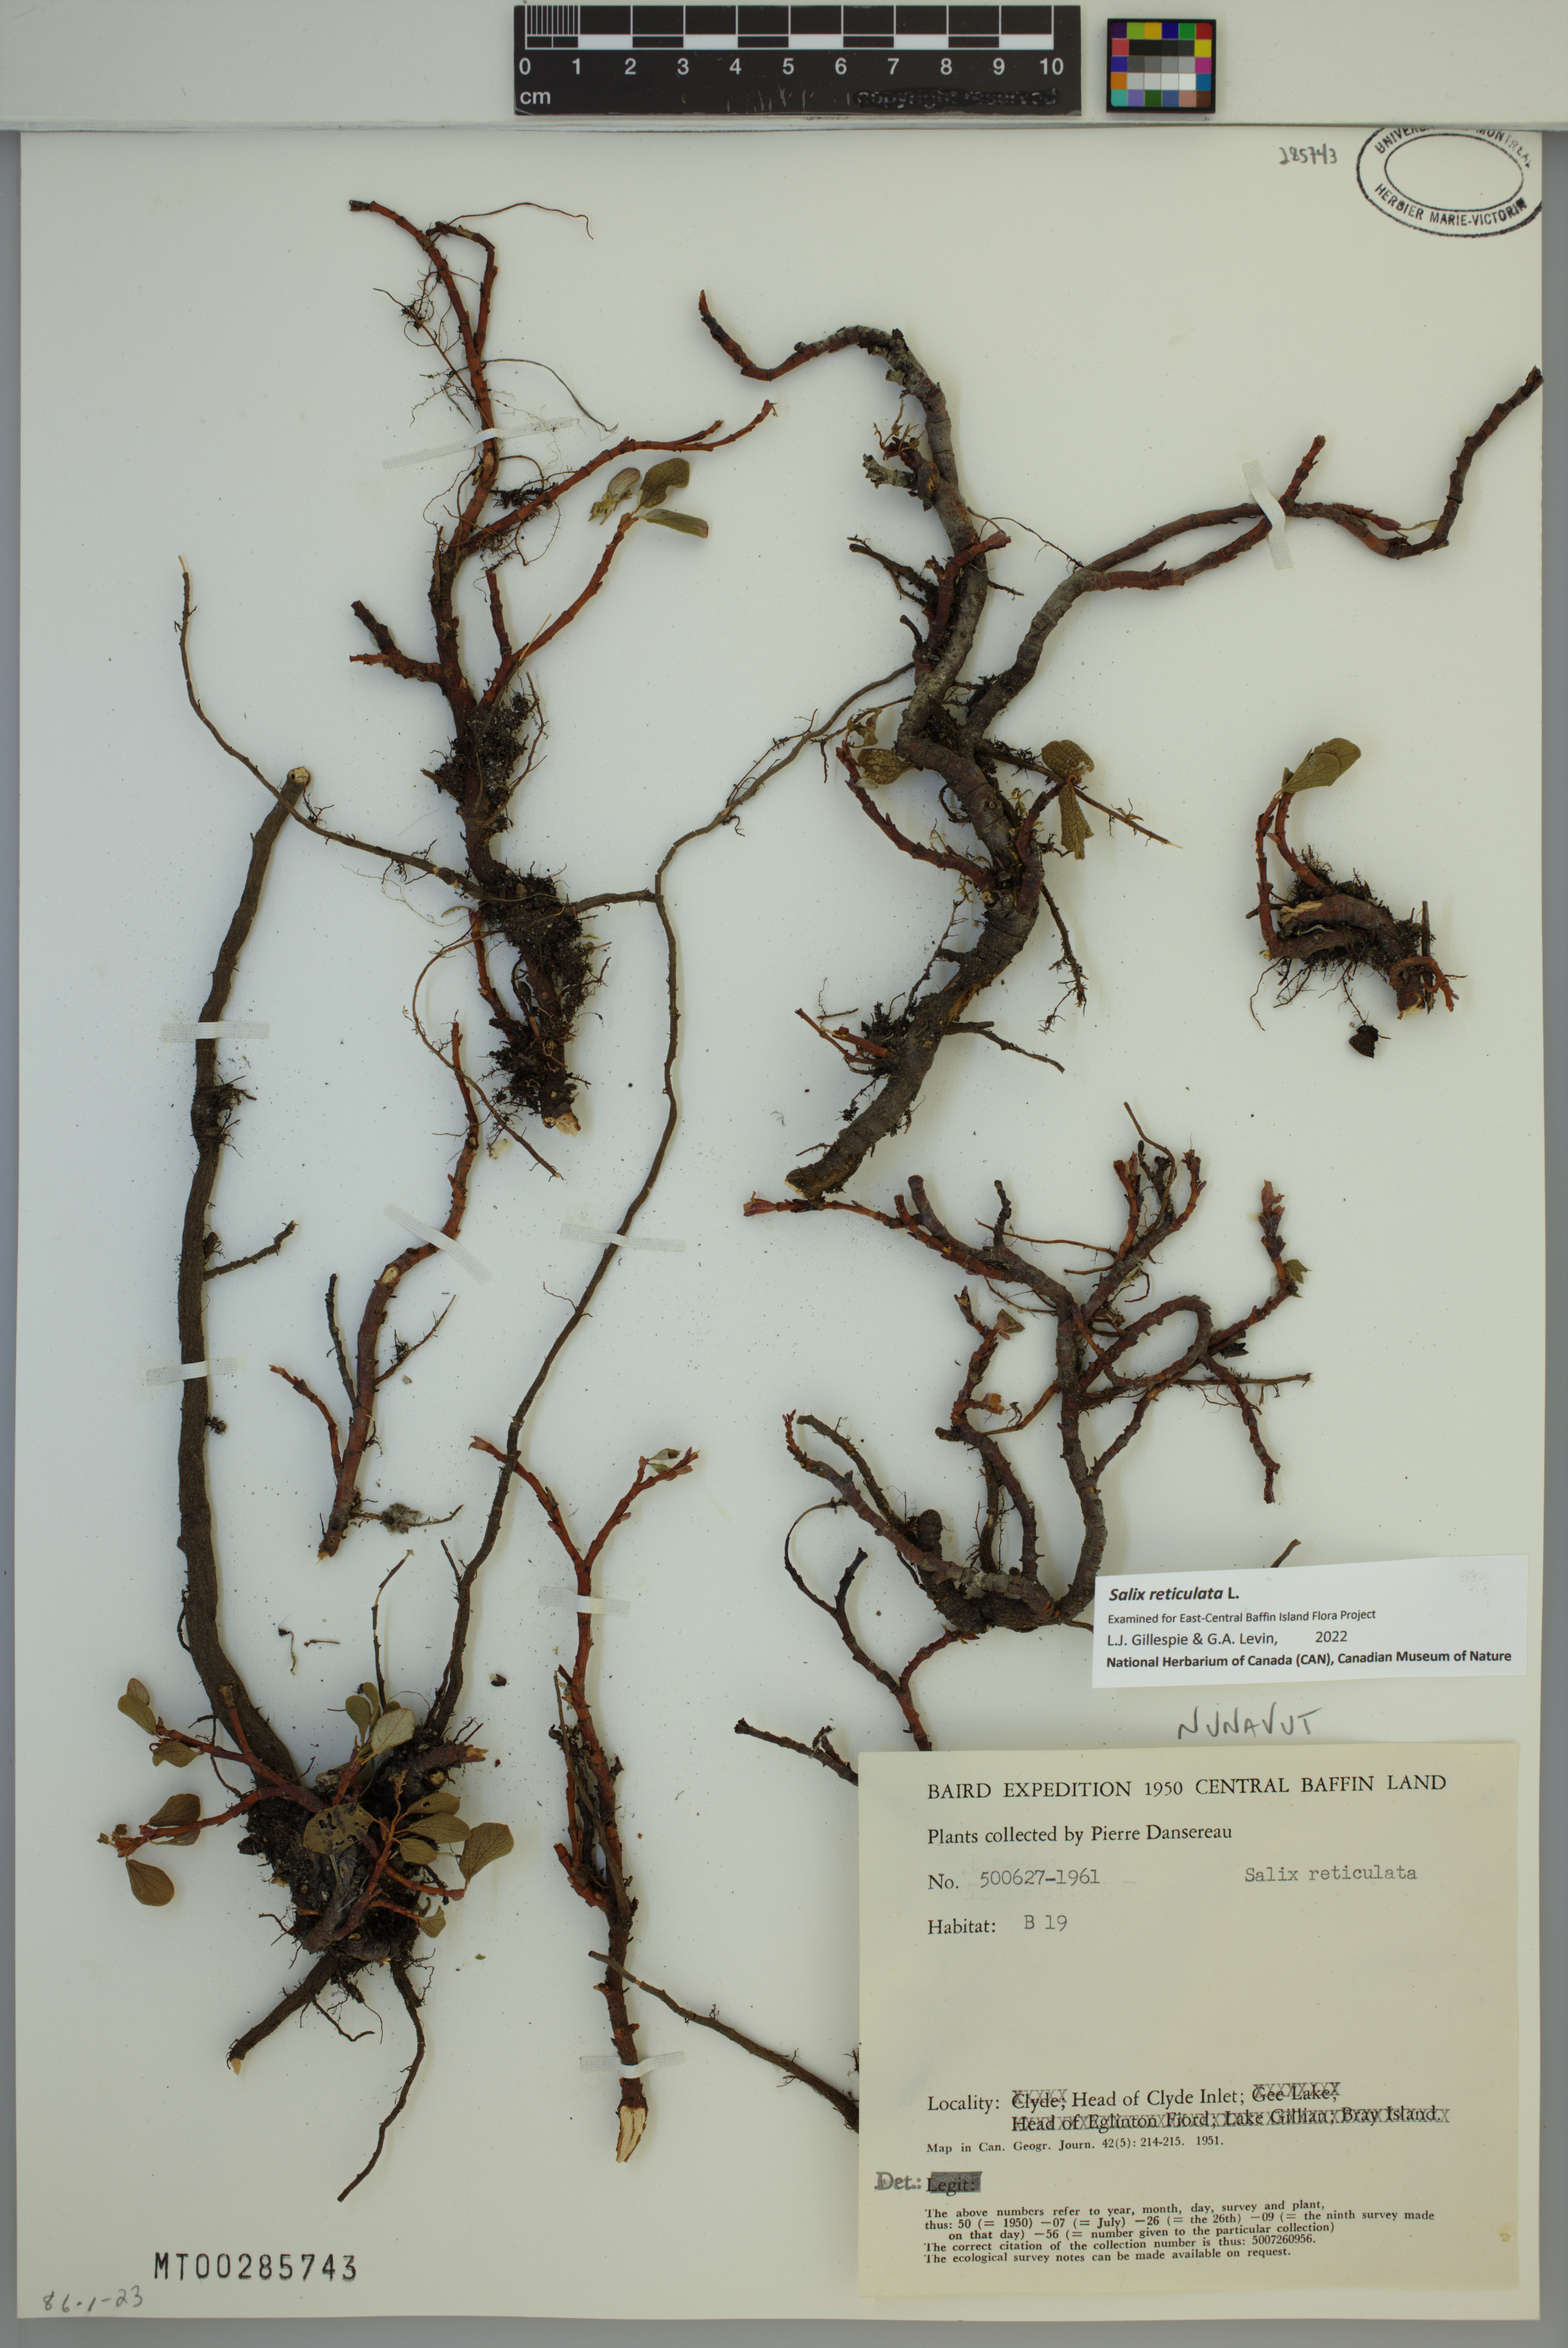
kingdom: Plantae
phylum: Tracheophyta
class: Magnoliopsida
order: Malpighiales
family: Salicaceae
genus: Salix
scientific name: Salix reticulata
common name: Net-leaved willow
